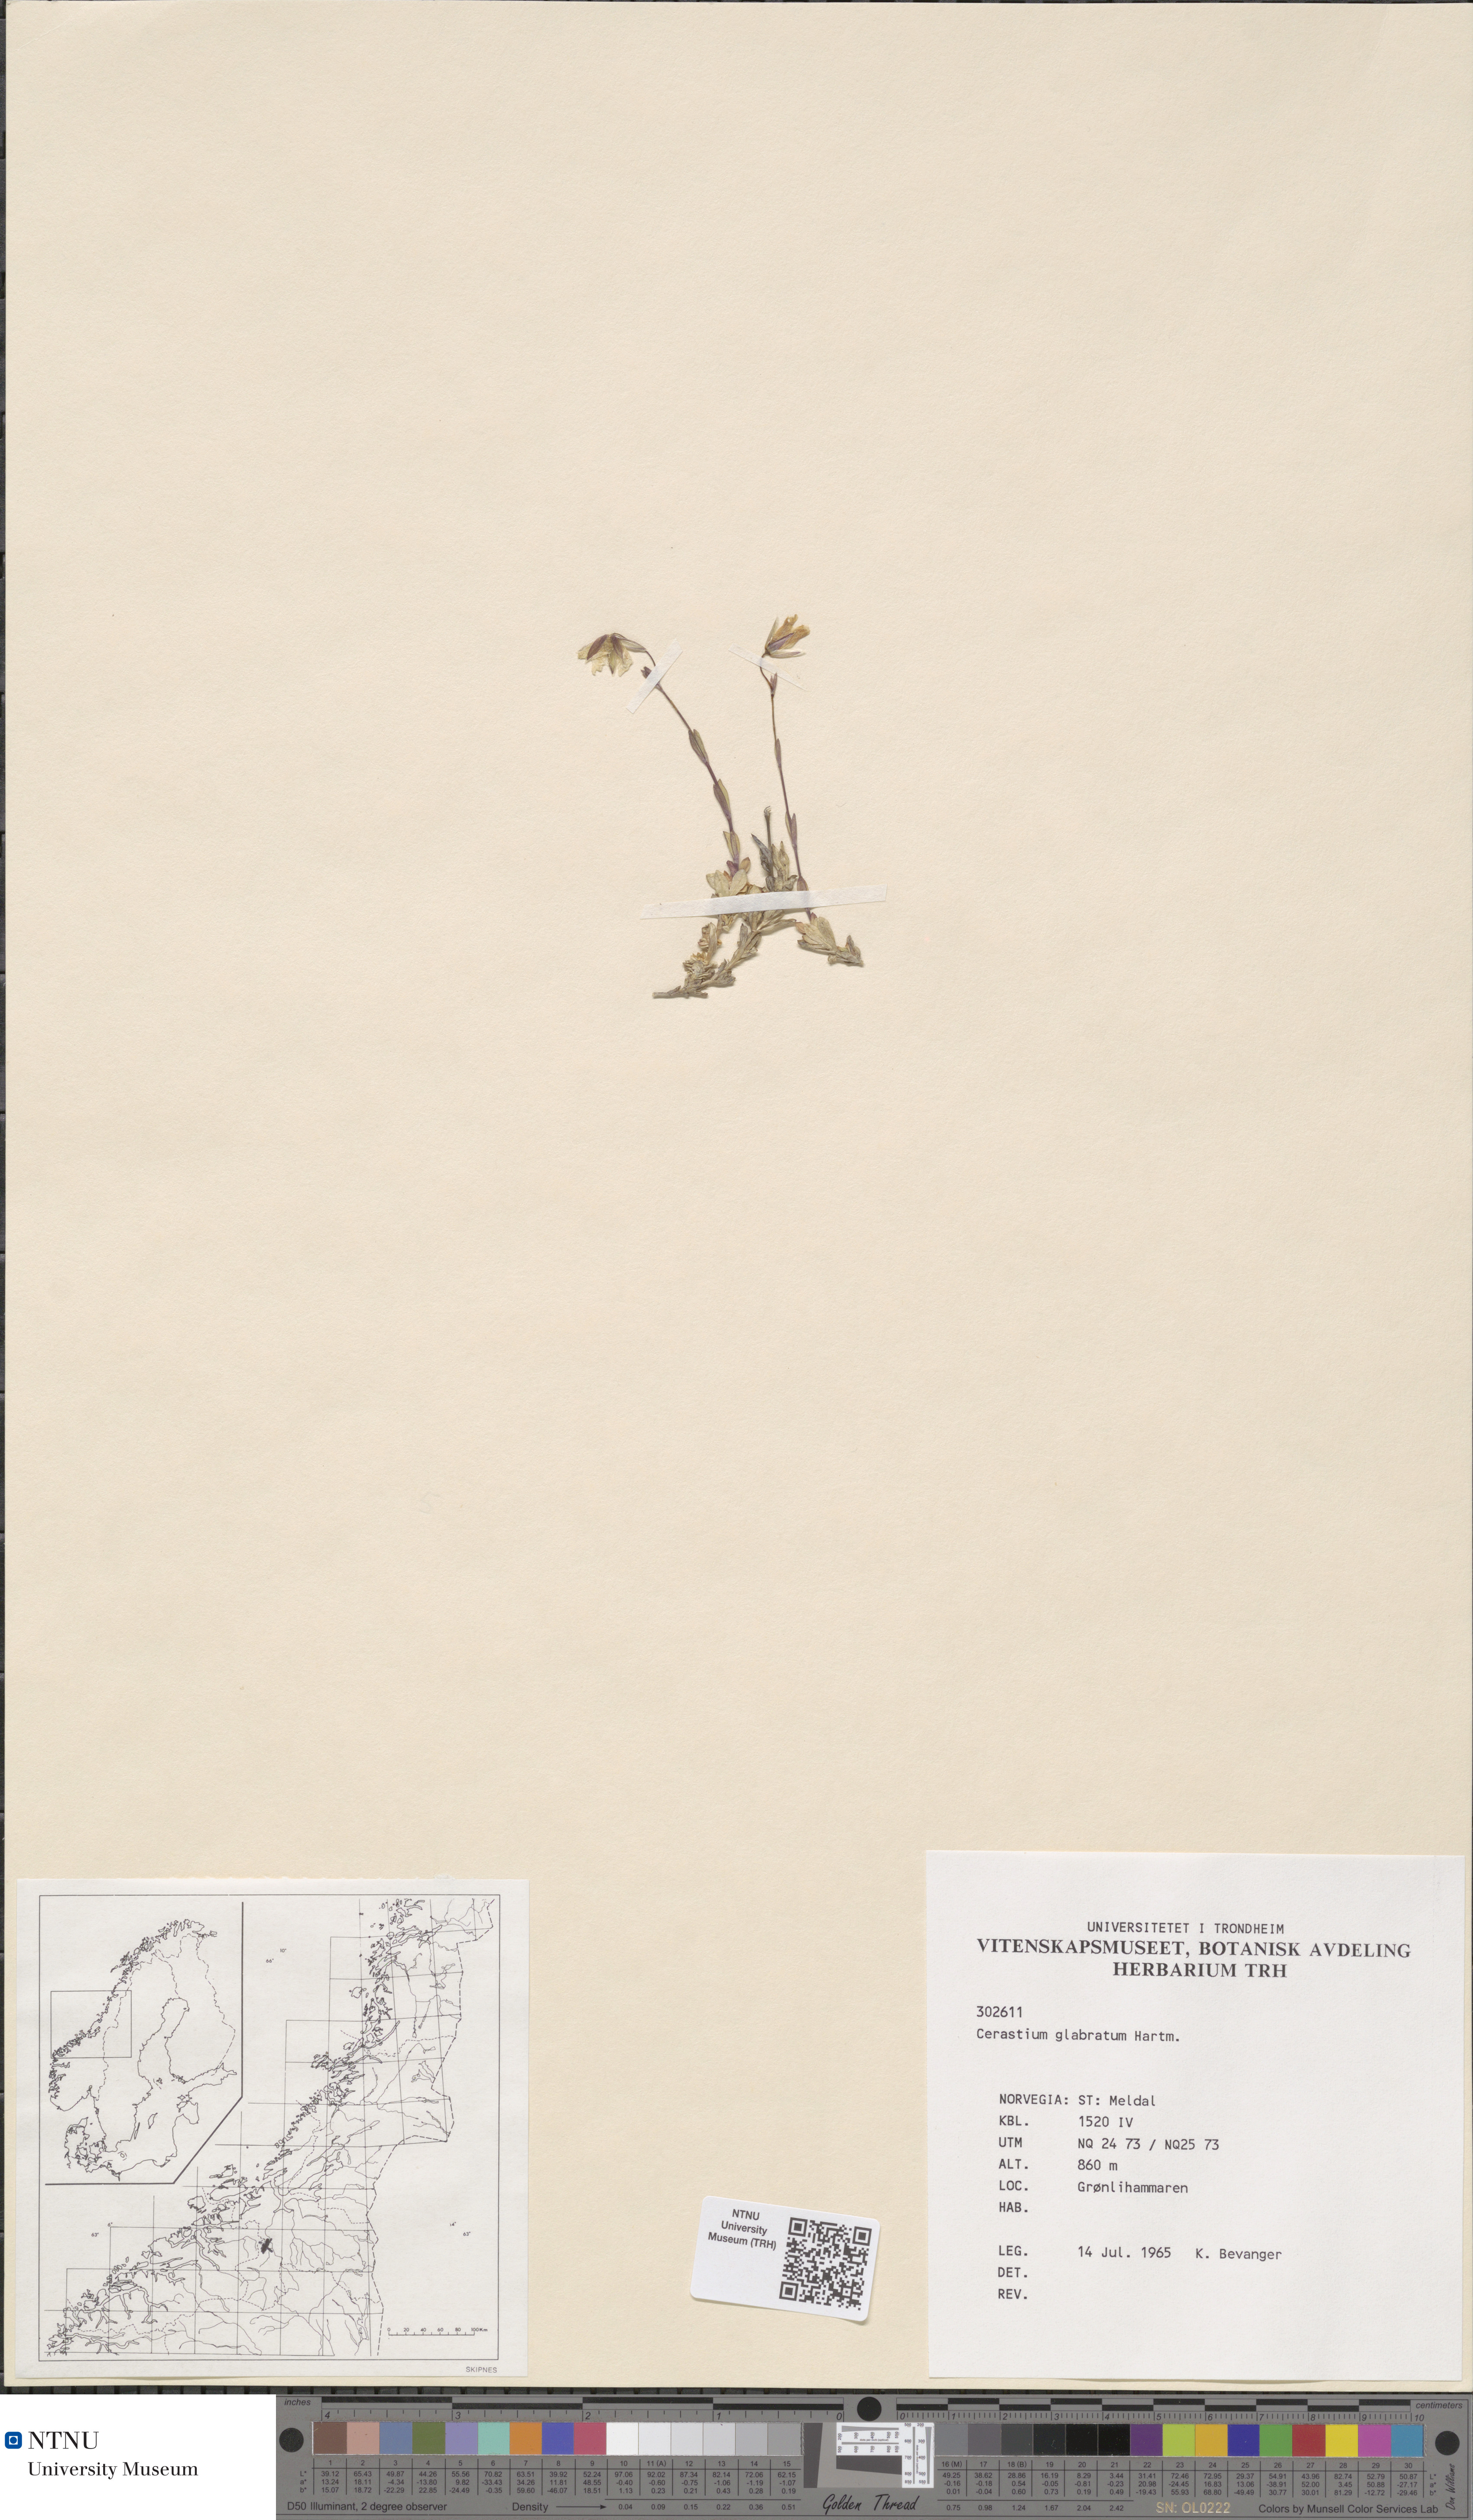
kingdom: Plantae
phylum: Tracheophyta
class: Magnoliopsida
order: Caryophyllales
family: Caryophyllaceae
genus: Cerastium
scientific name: Cerastium alpinum
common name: Alpine mouse-ear
